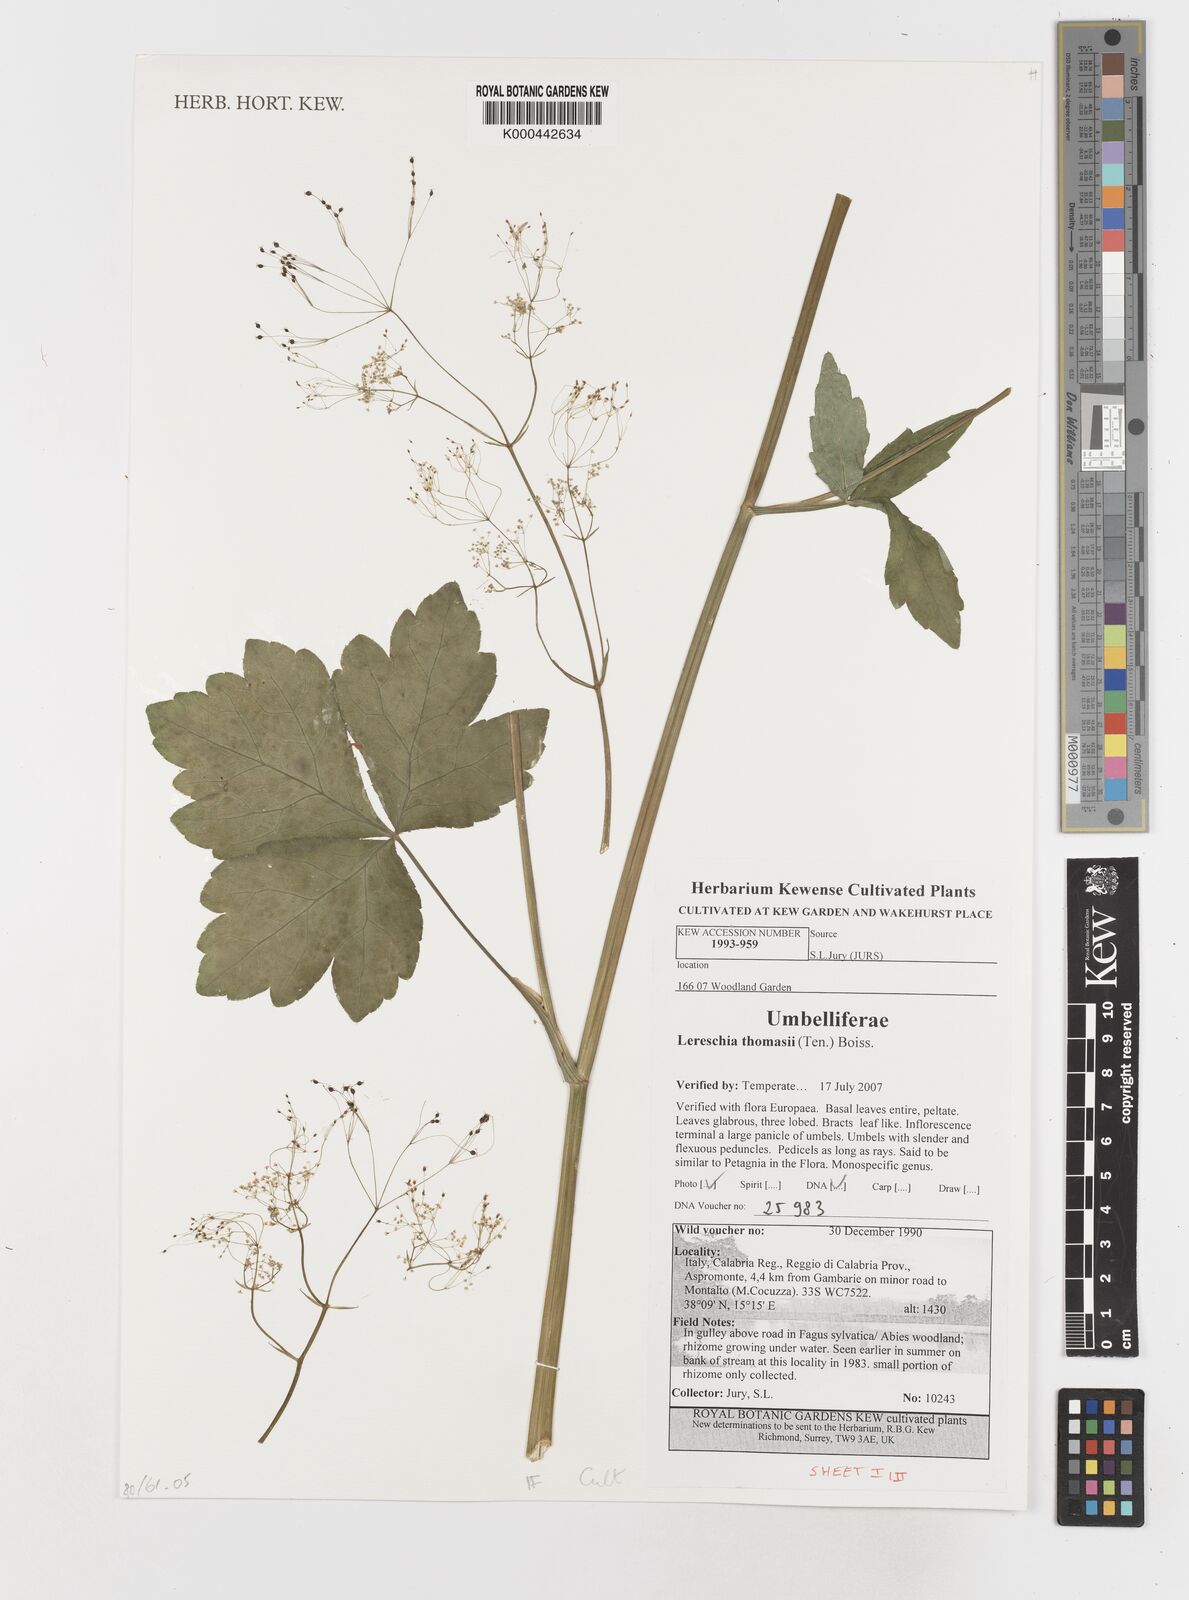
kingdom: Plantae
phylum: Tracheophyta
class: Magnoliopsida
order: Apiales
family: Apiaceae
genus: Cryptotaenia
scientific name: Cryptotaenia thomasii
